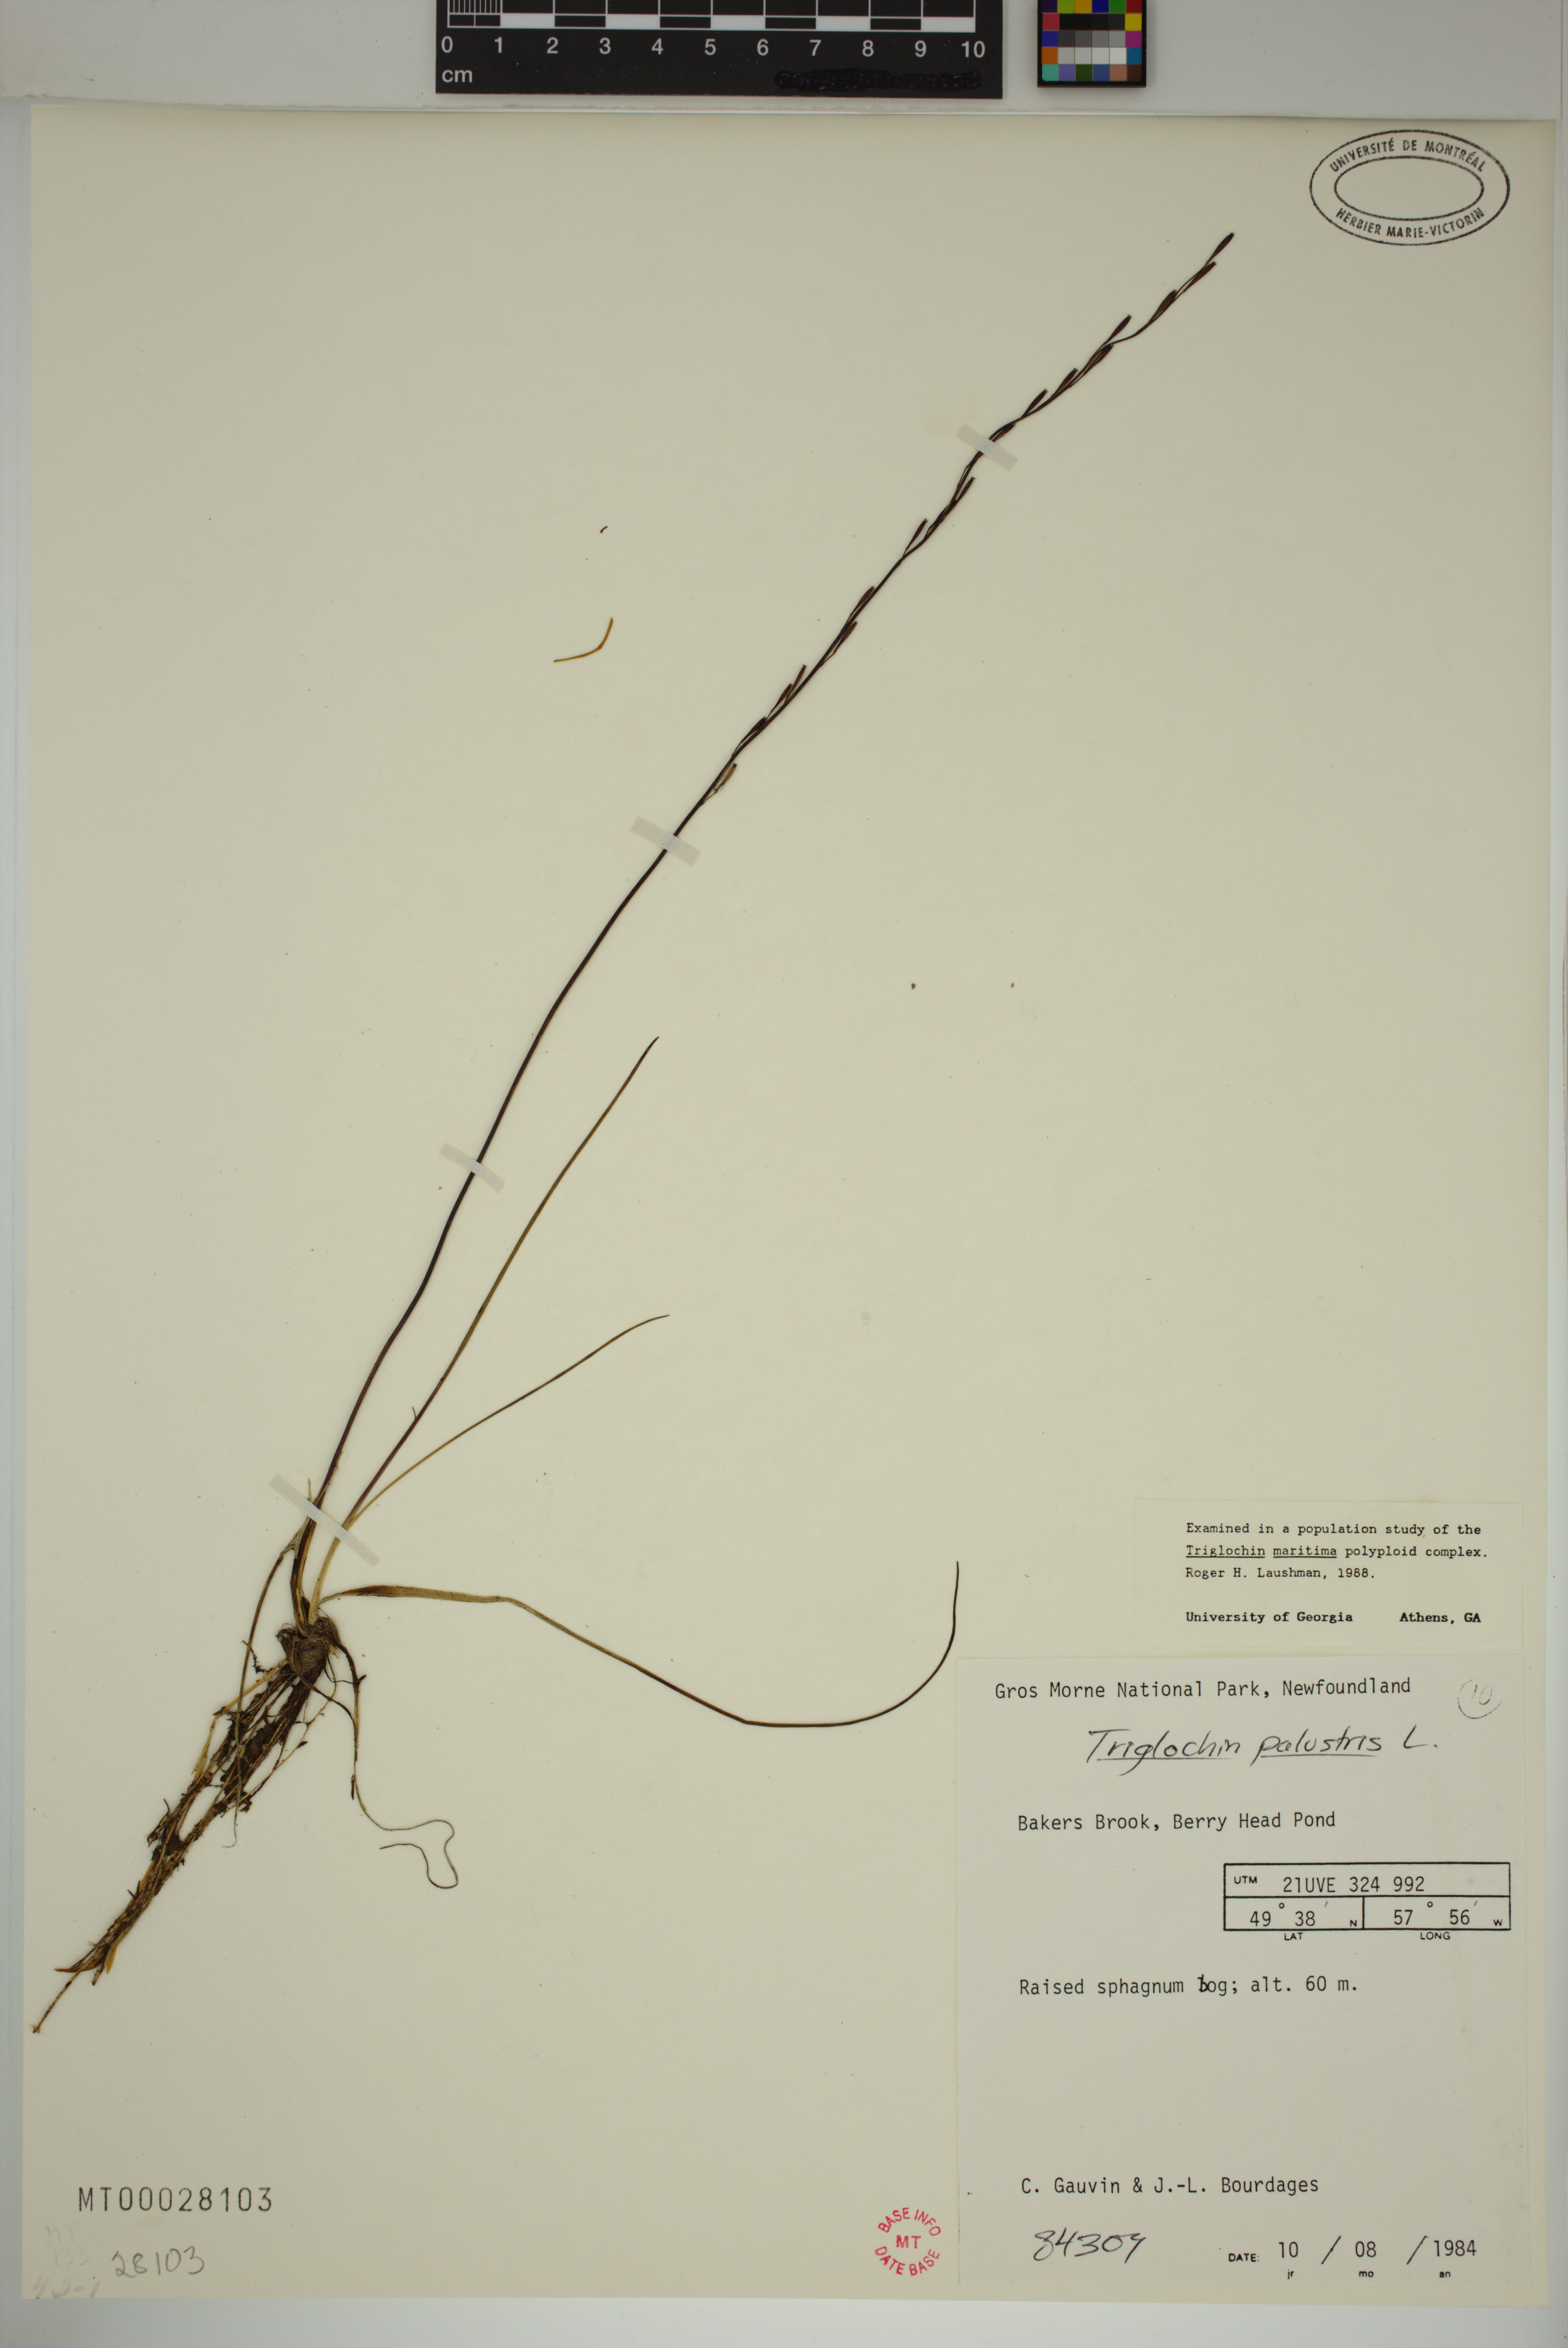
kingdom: Plantae
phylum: Tracheophyta
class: Liliopsida
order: Alismatales
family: Juncaginaceae
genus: Triglochin
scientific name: Triglochin palustris
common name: Marsh arrowgrass
